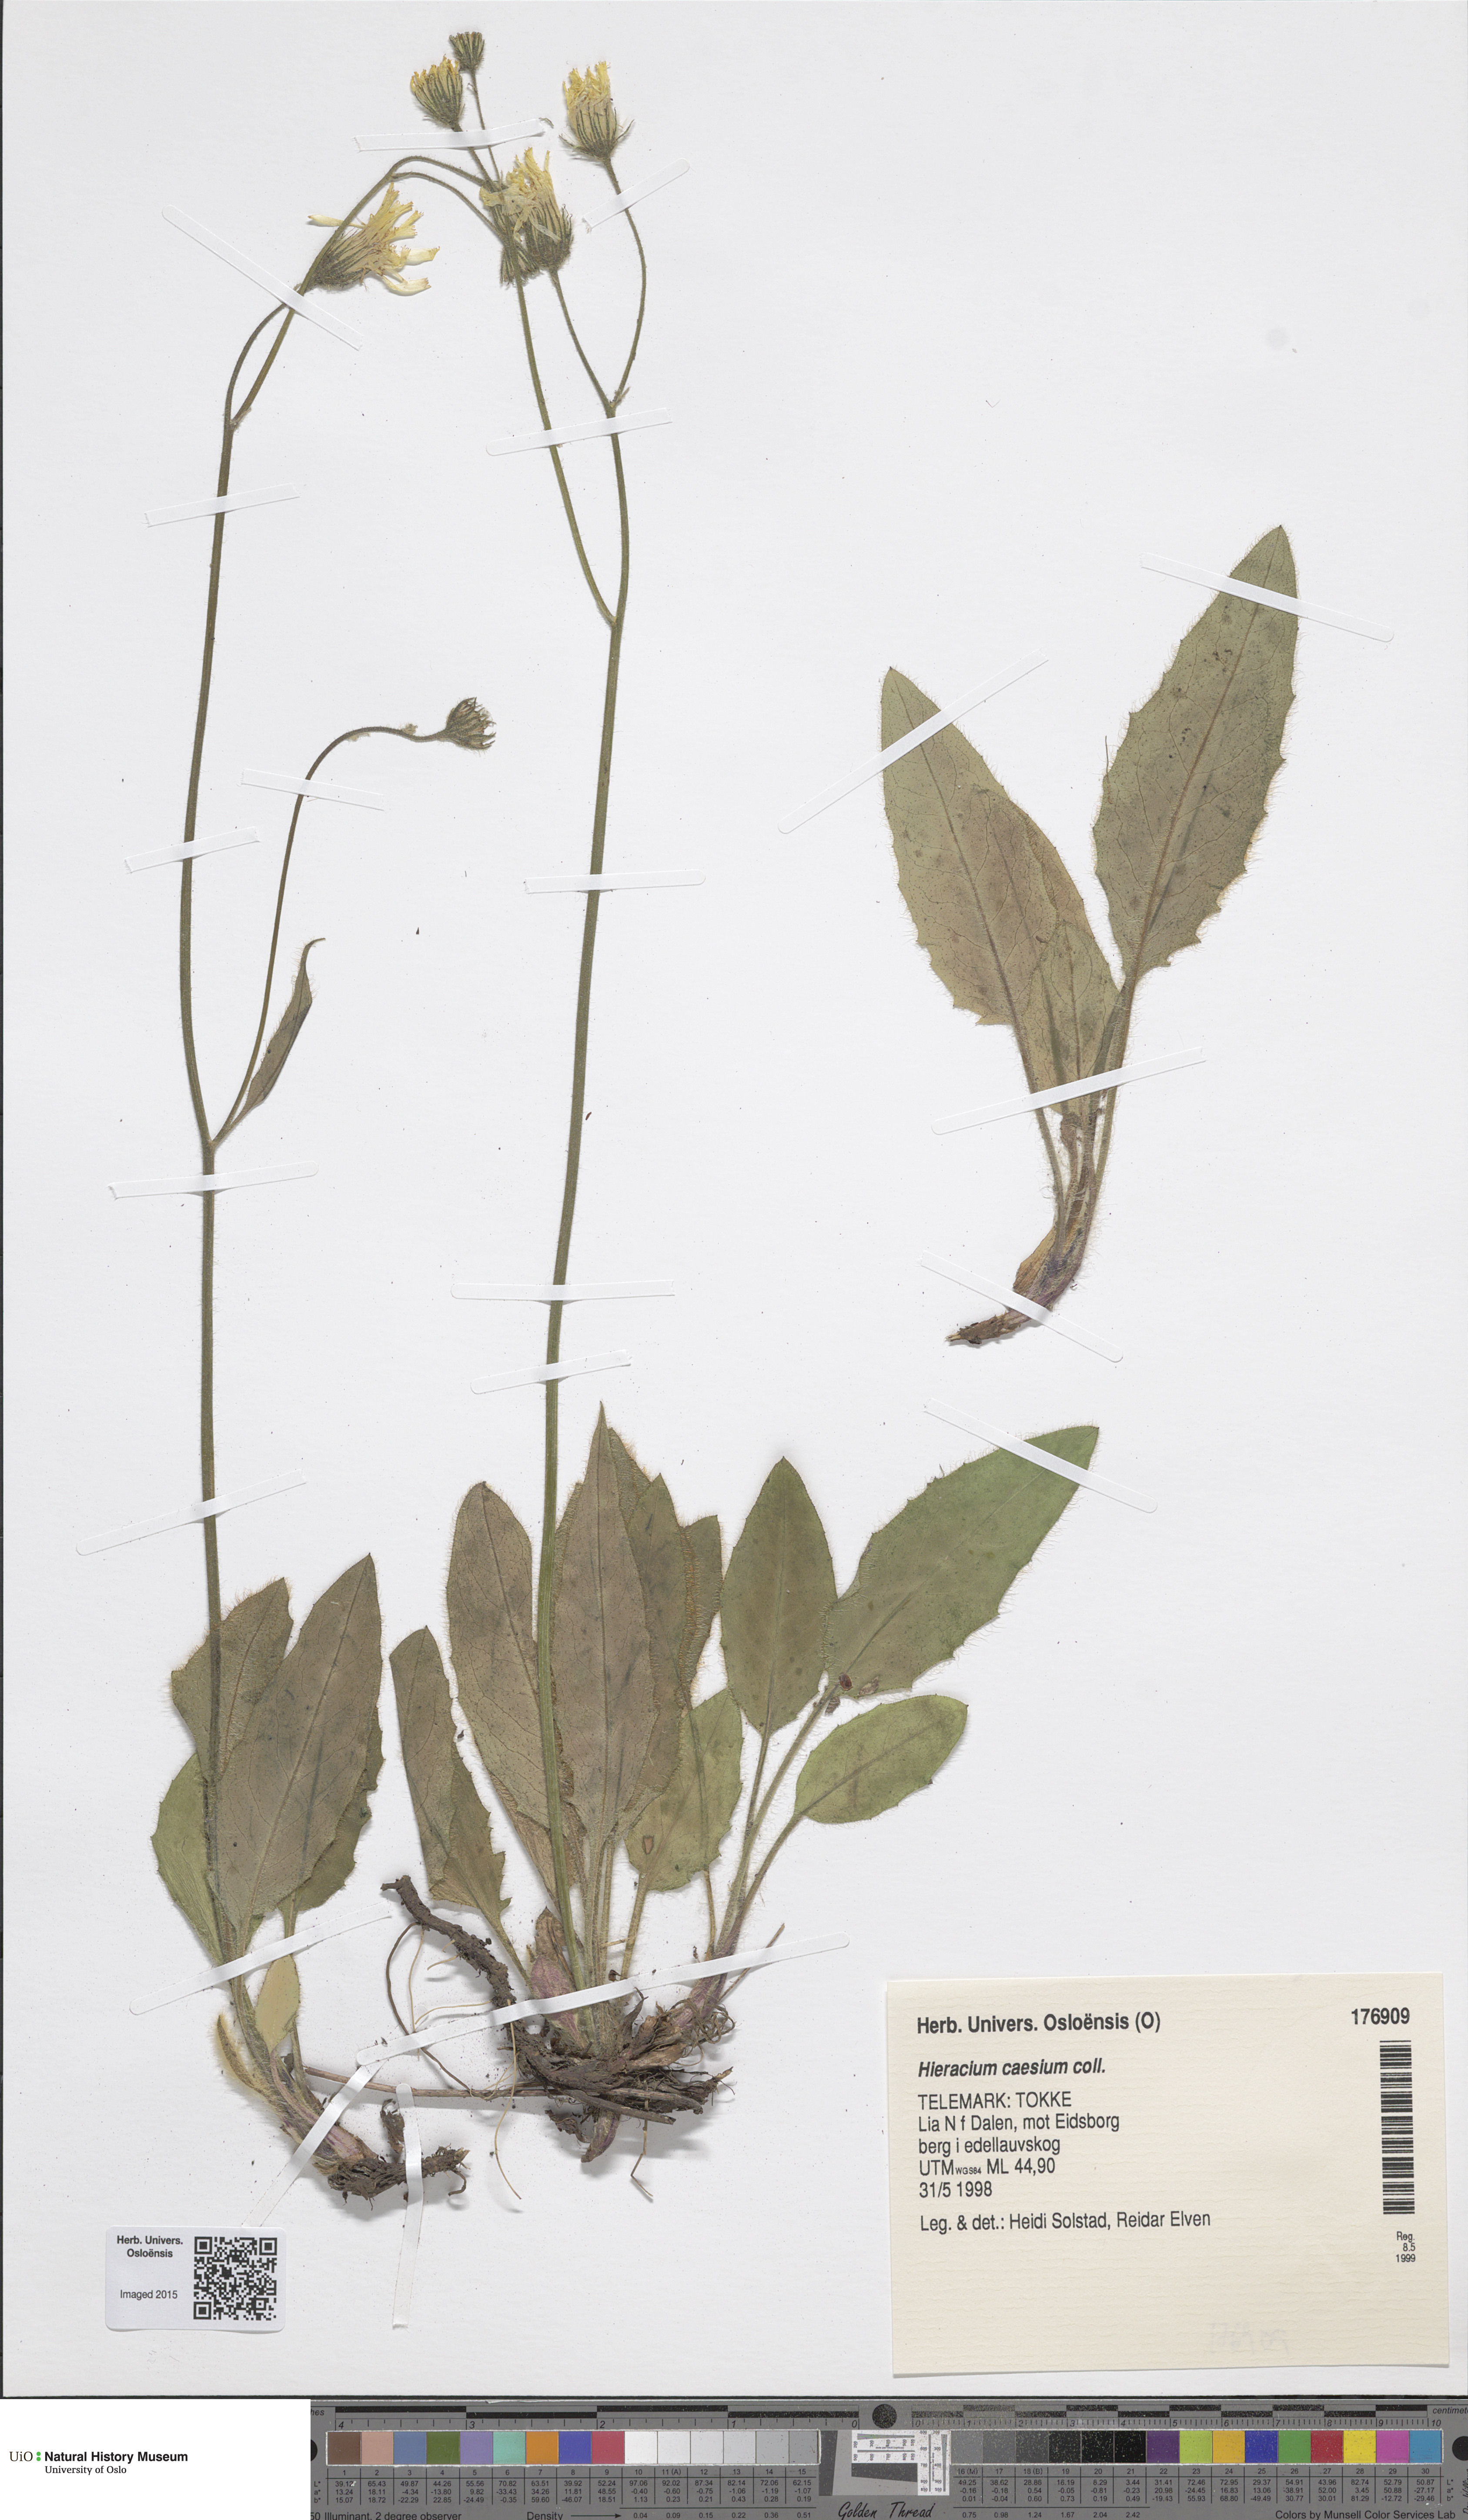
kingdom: Plantae
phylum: Tracheophyta
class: Magnoliopsida
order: Asterales
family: Asteraceae
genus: Hieracium
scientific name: Hieracium caesium
